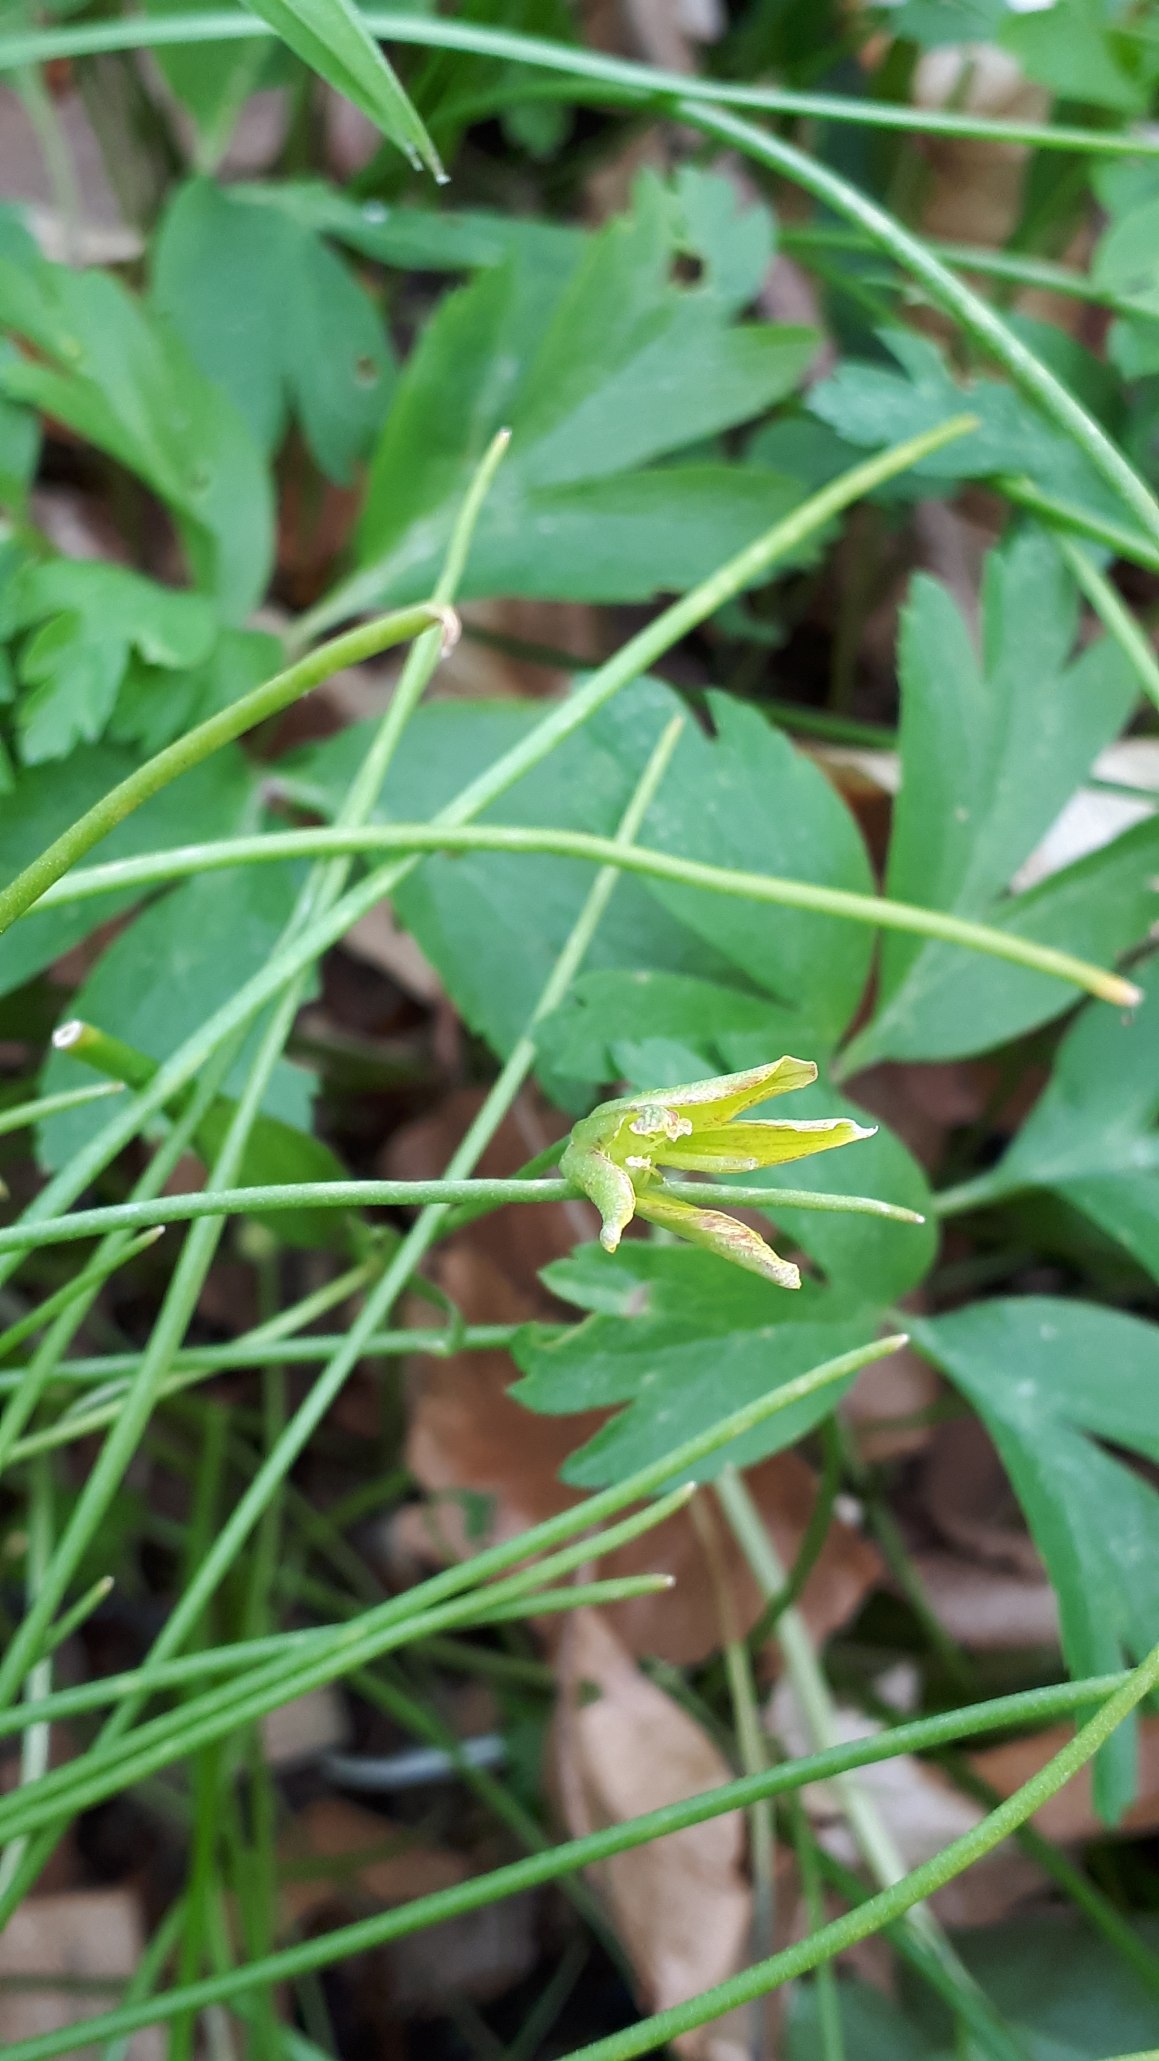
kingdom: Plantae
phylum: Tracheophyta
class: Liliopsida
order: Liliales
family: Liliaceae
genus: Gagea
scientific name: Gagea spathacea
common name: Hylster-guldstjerne
